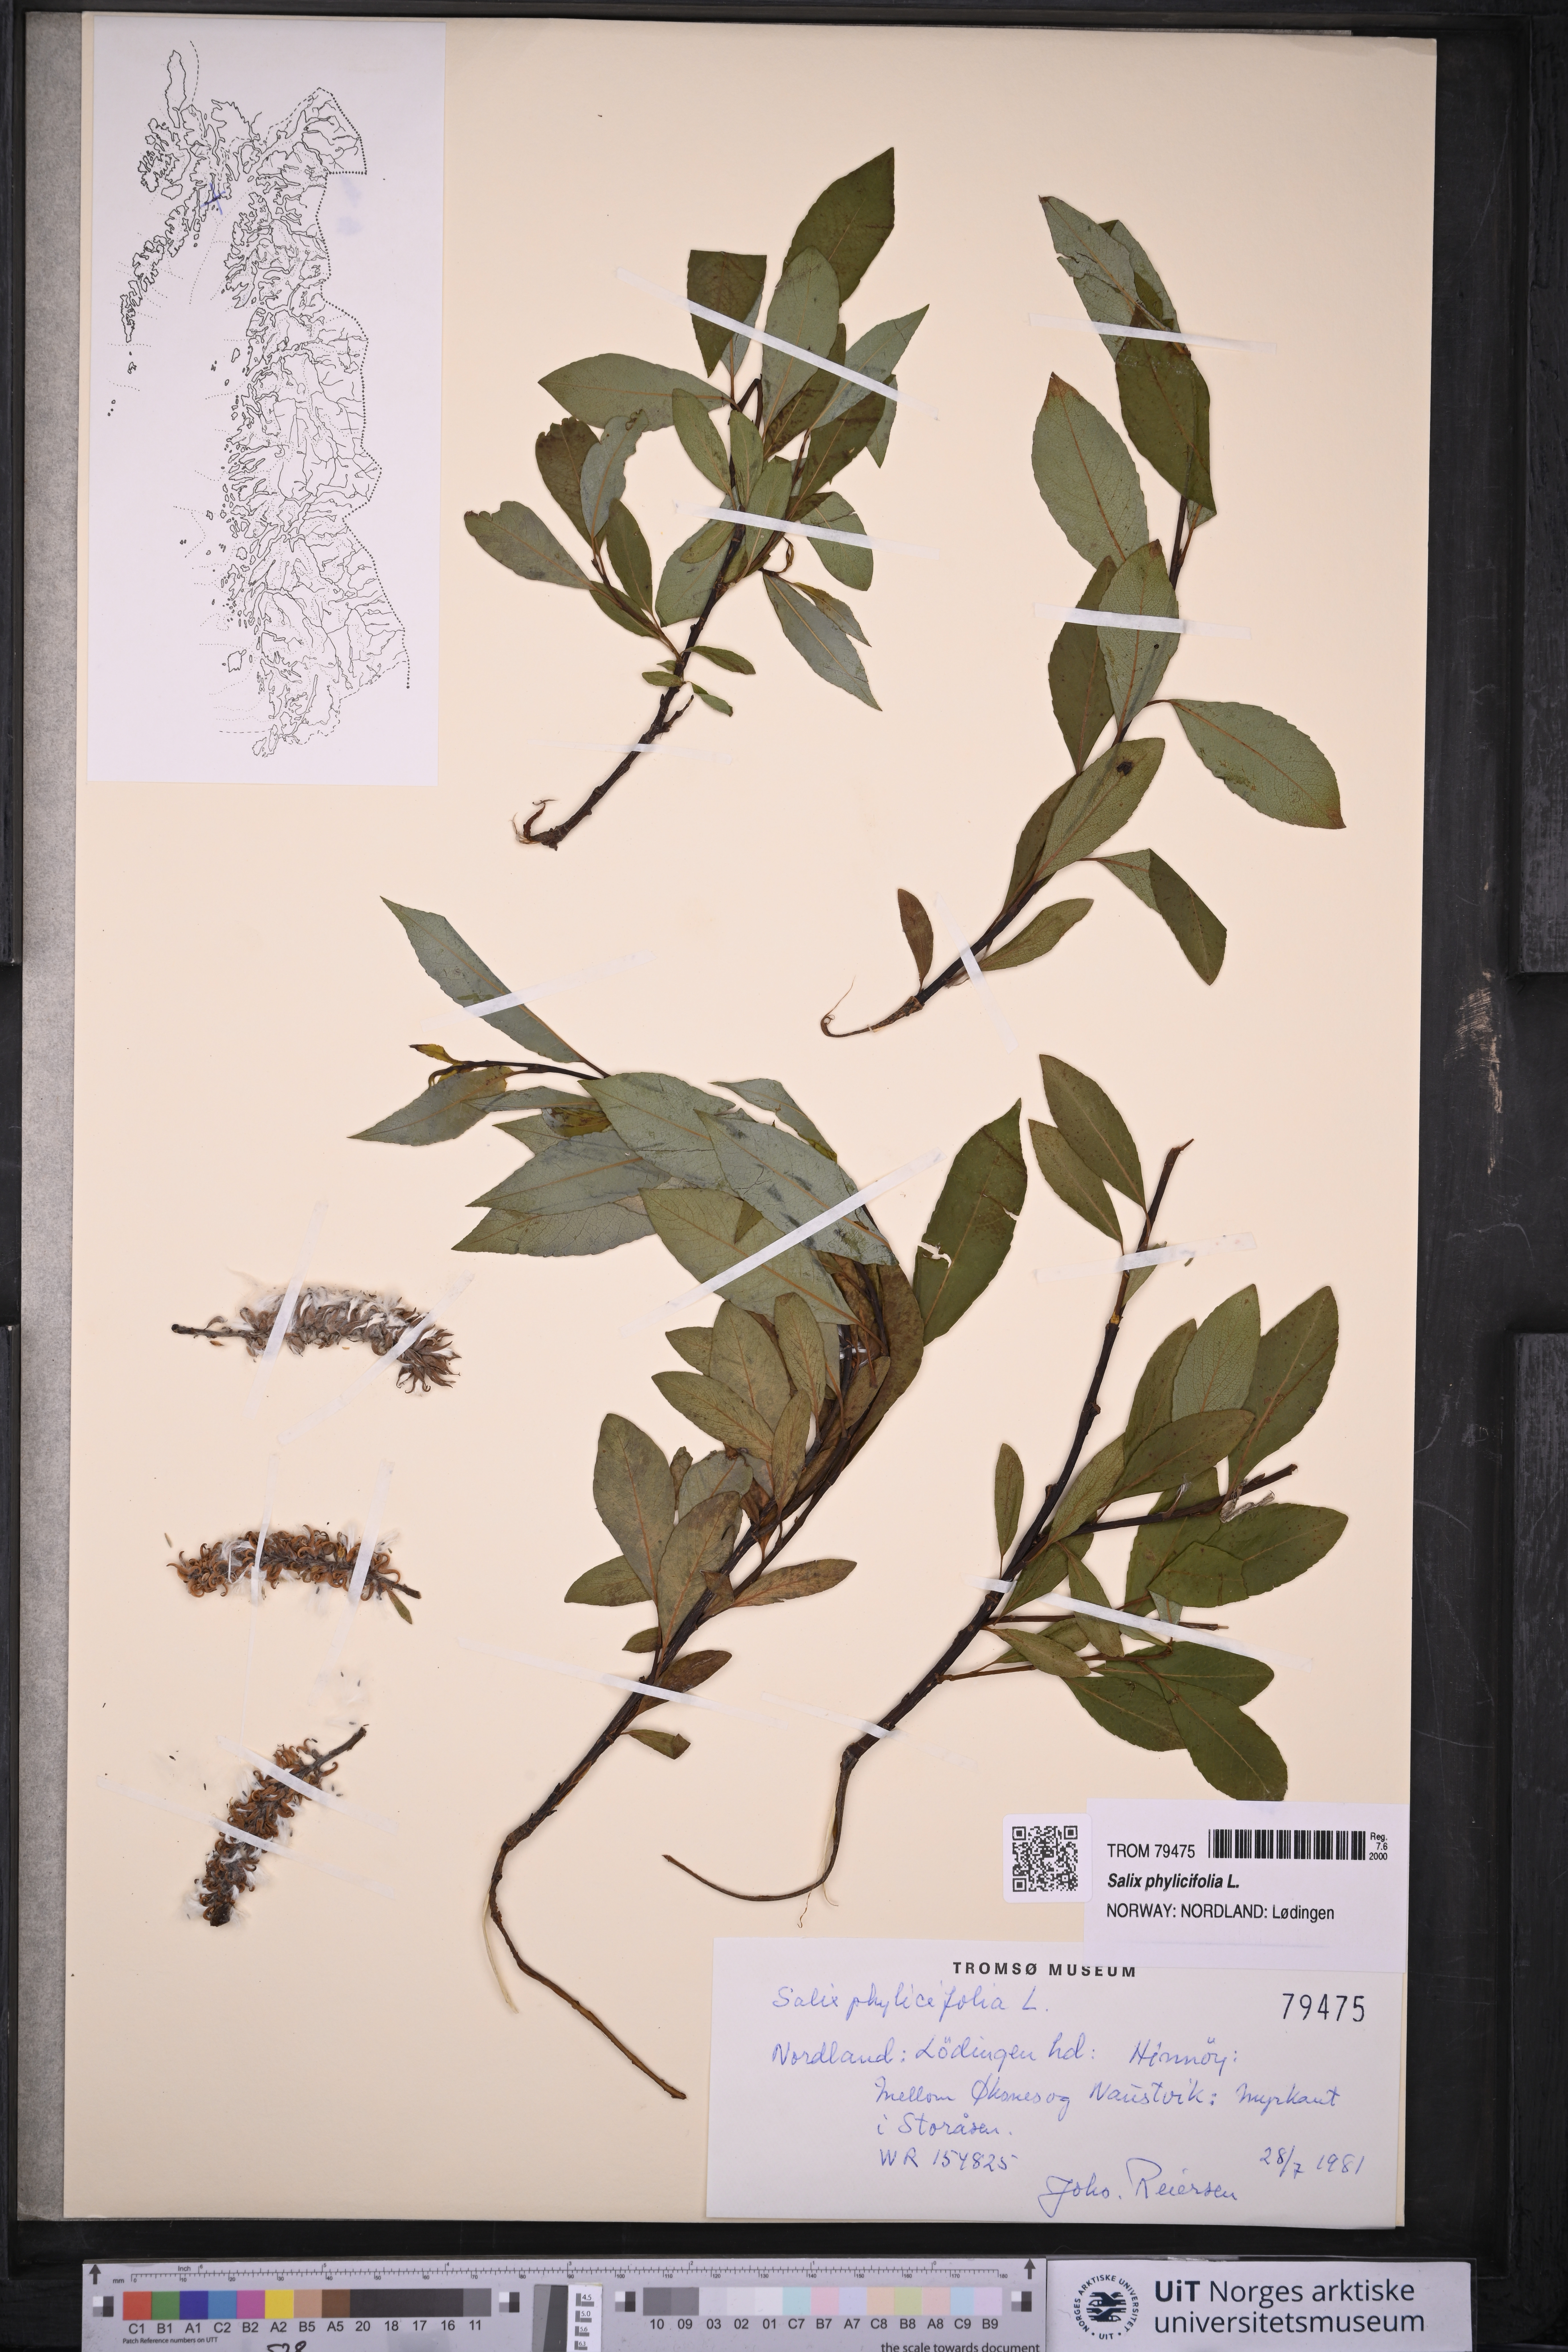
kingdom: Plantae
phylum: Tracheophyta
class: Magnoliopsida
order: Malpighiales
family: Salicaceae
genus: Salix
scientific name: Salix phylicifolia
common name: Tea-leaved willow
